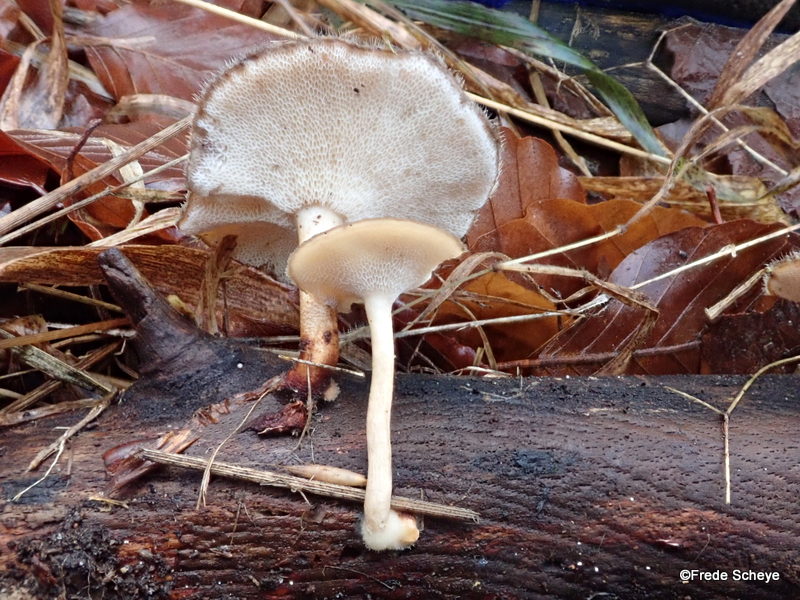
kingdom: Fungi
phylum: Basidiomycota
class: Agaricomycetes
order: Polyporales
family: Polyporaceae
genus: Lentinus
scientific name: Lentinus brumalis
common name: vinter-stilkporesvamp
